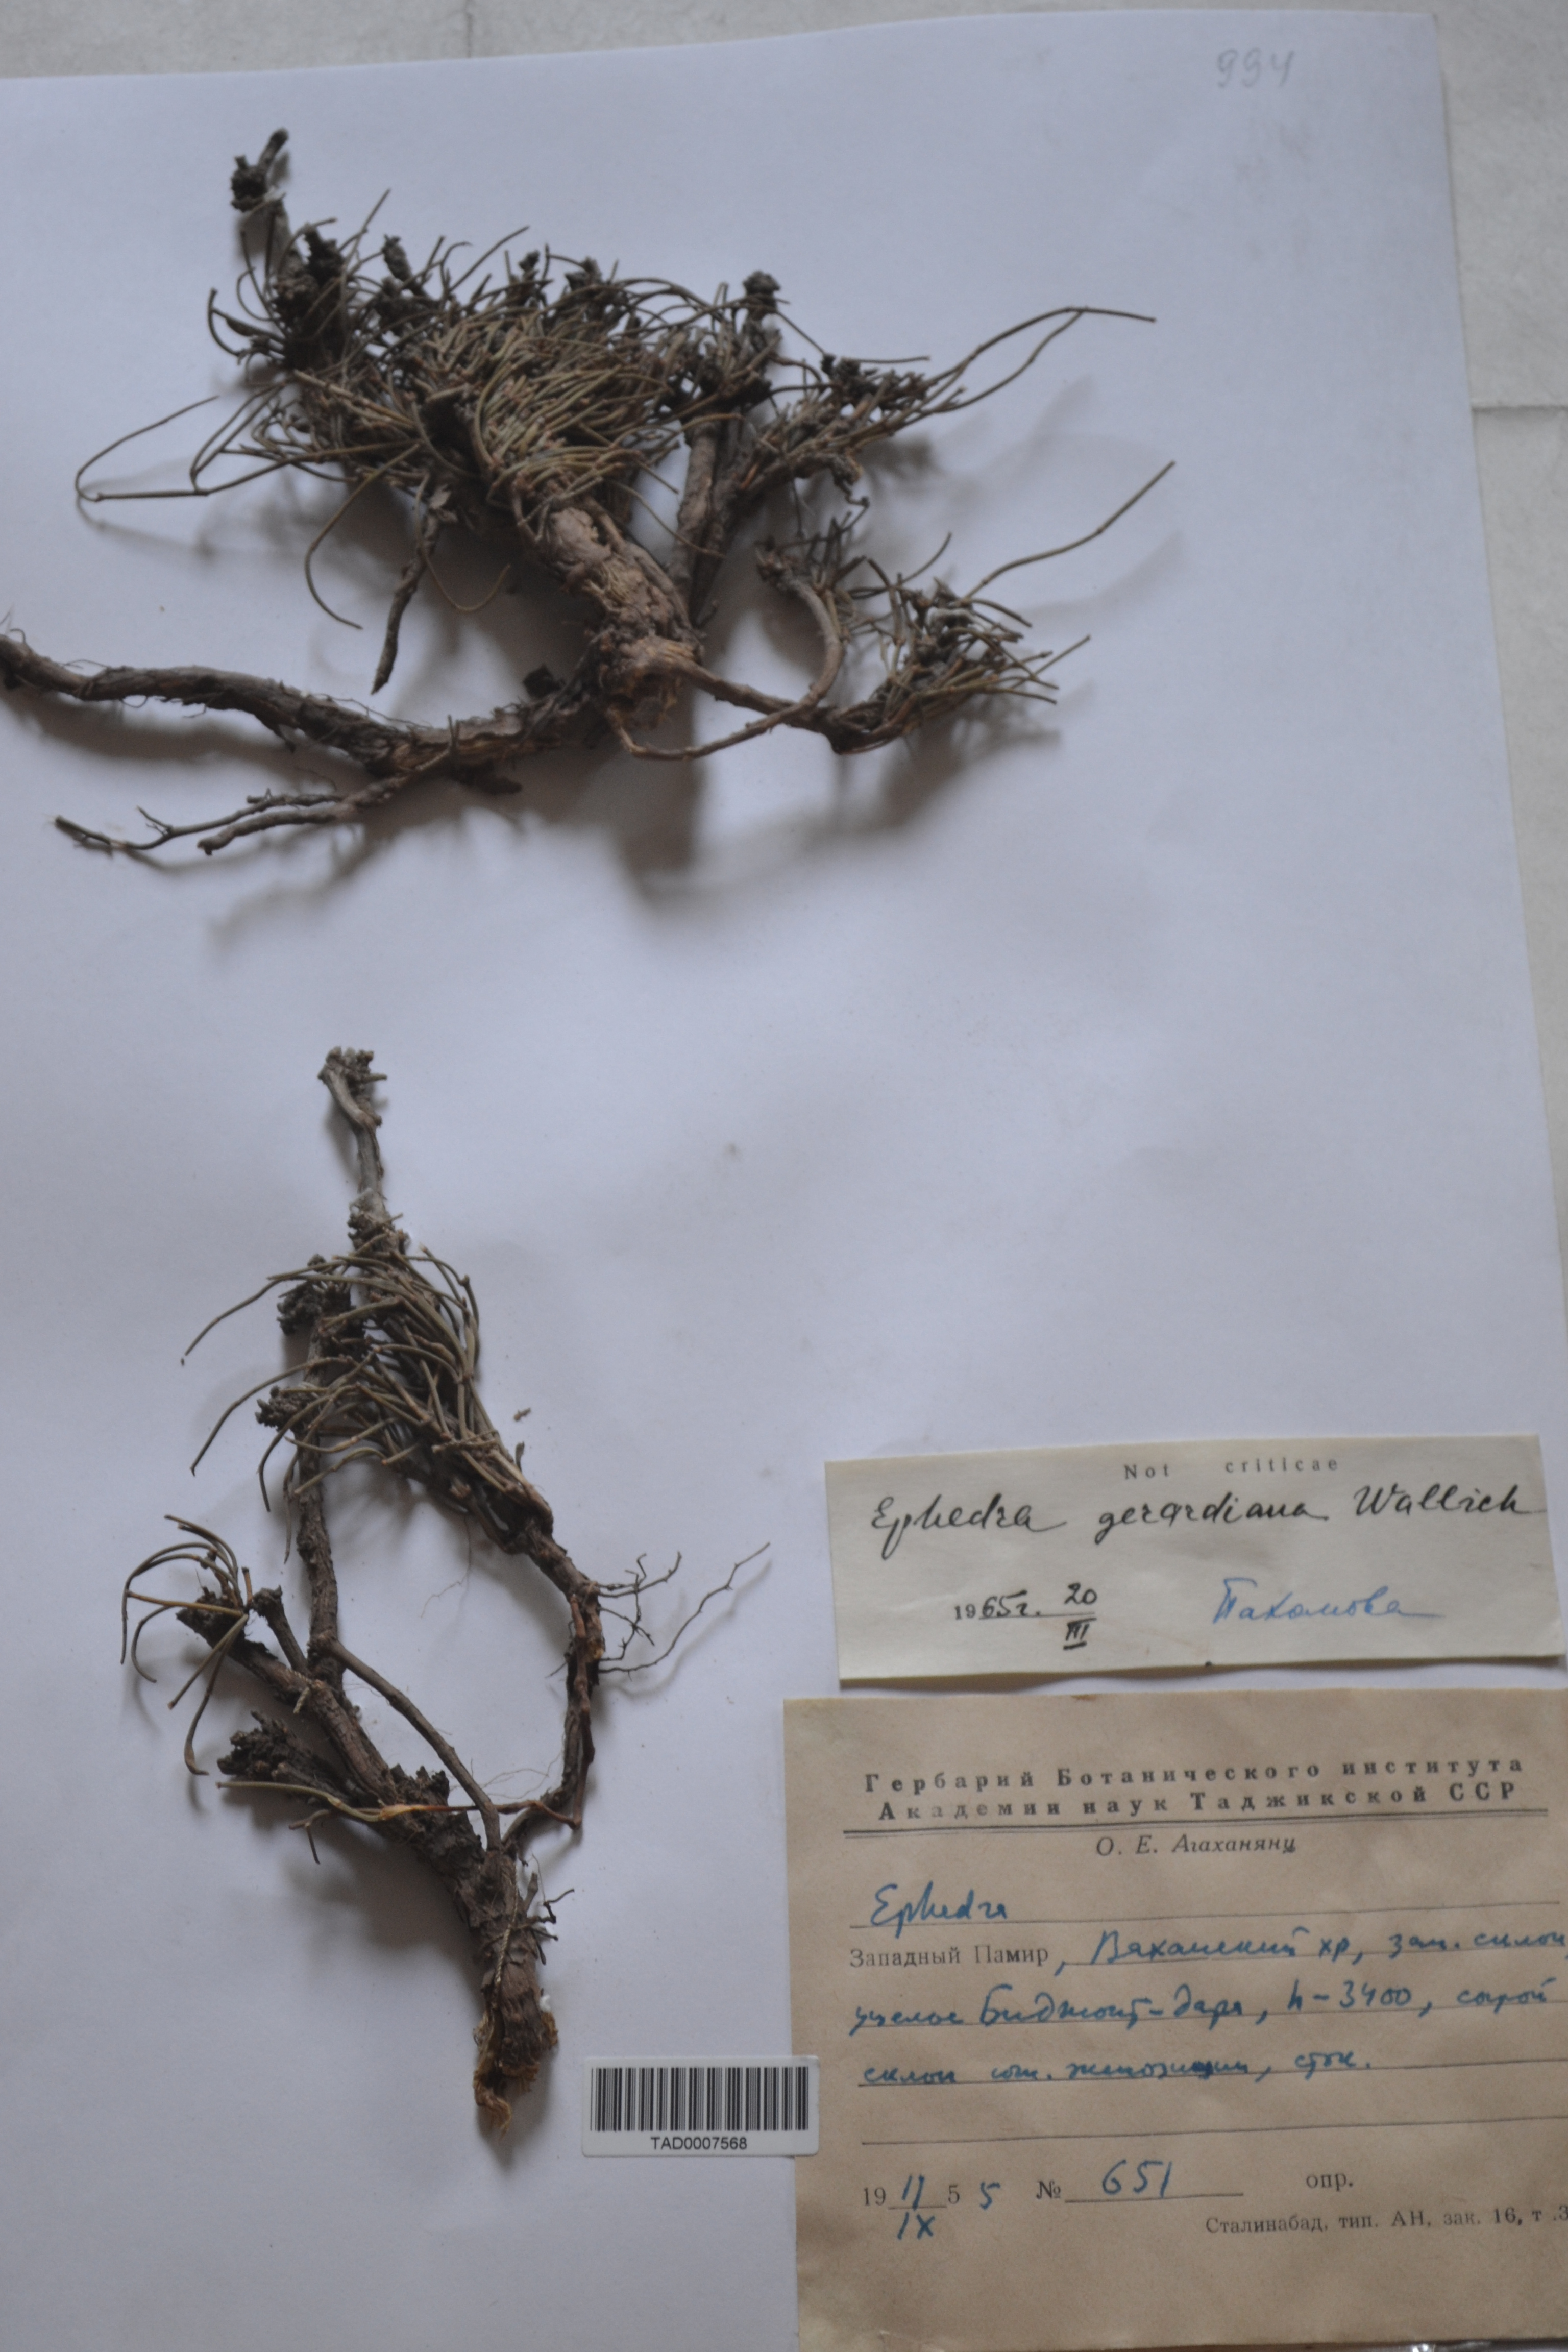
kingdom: Plantae
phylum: Tracheophyta
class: Gnetopsida
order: Ephedrales
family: Ephedraceae
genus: Ephedra
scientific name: Ephedra gerardiana
